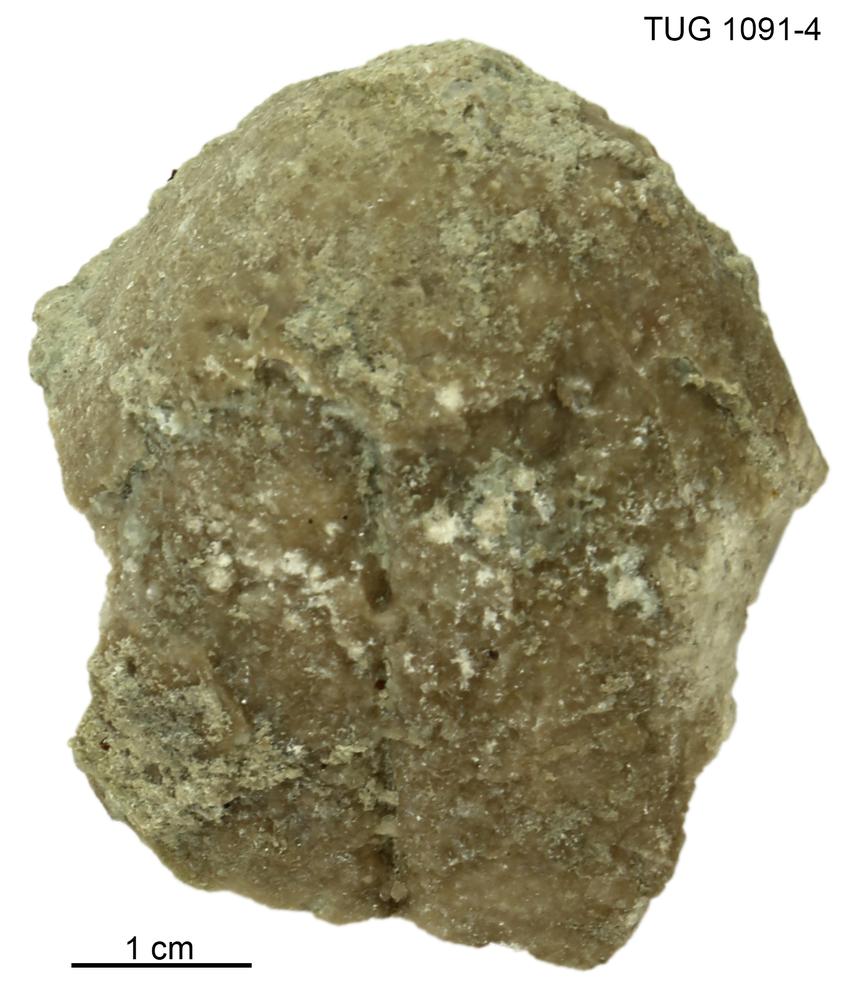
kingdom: Animalia
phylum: Mollusca
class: Bivalvia
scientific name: Bivalvia
